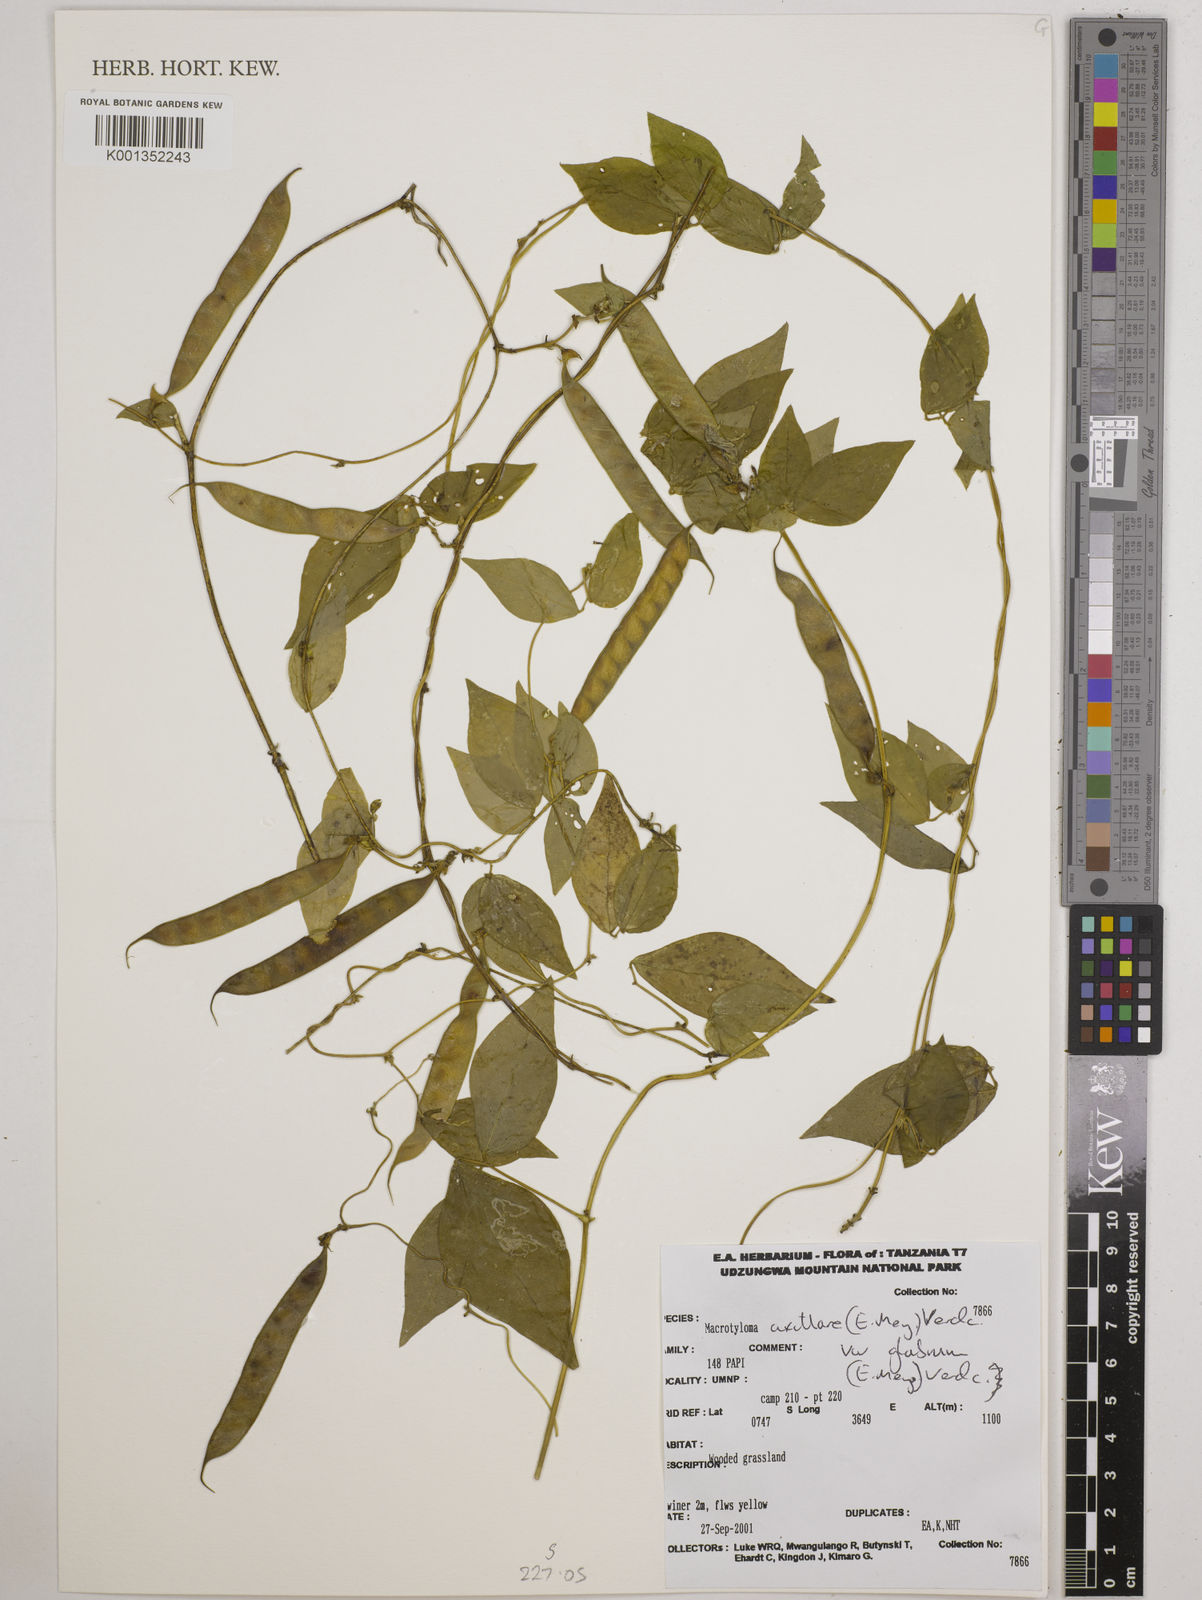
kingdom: Plantae
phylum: Tracheophyta
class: Magnoliopsida
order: Fabales
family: Fabaceae
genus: Macrotyloma
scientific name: Macrotyloma
